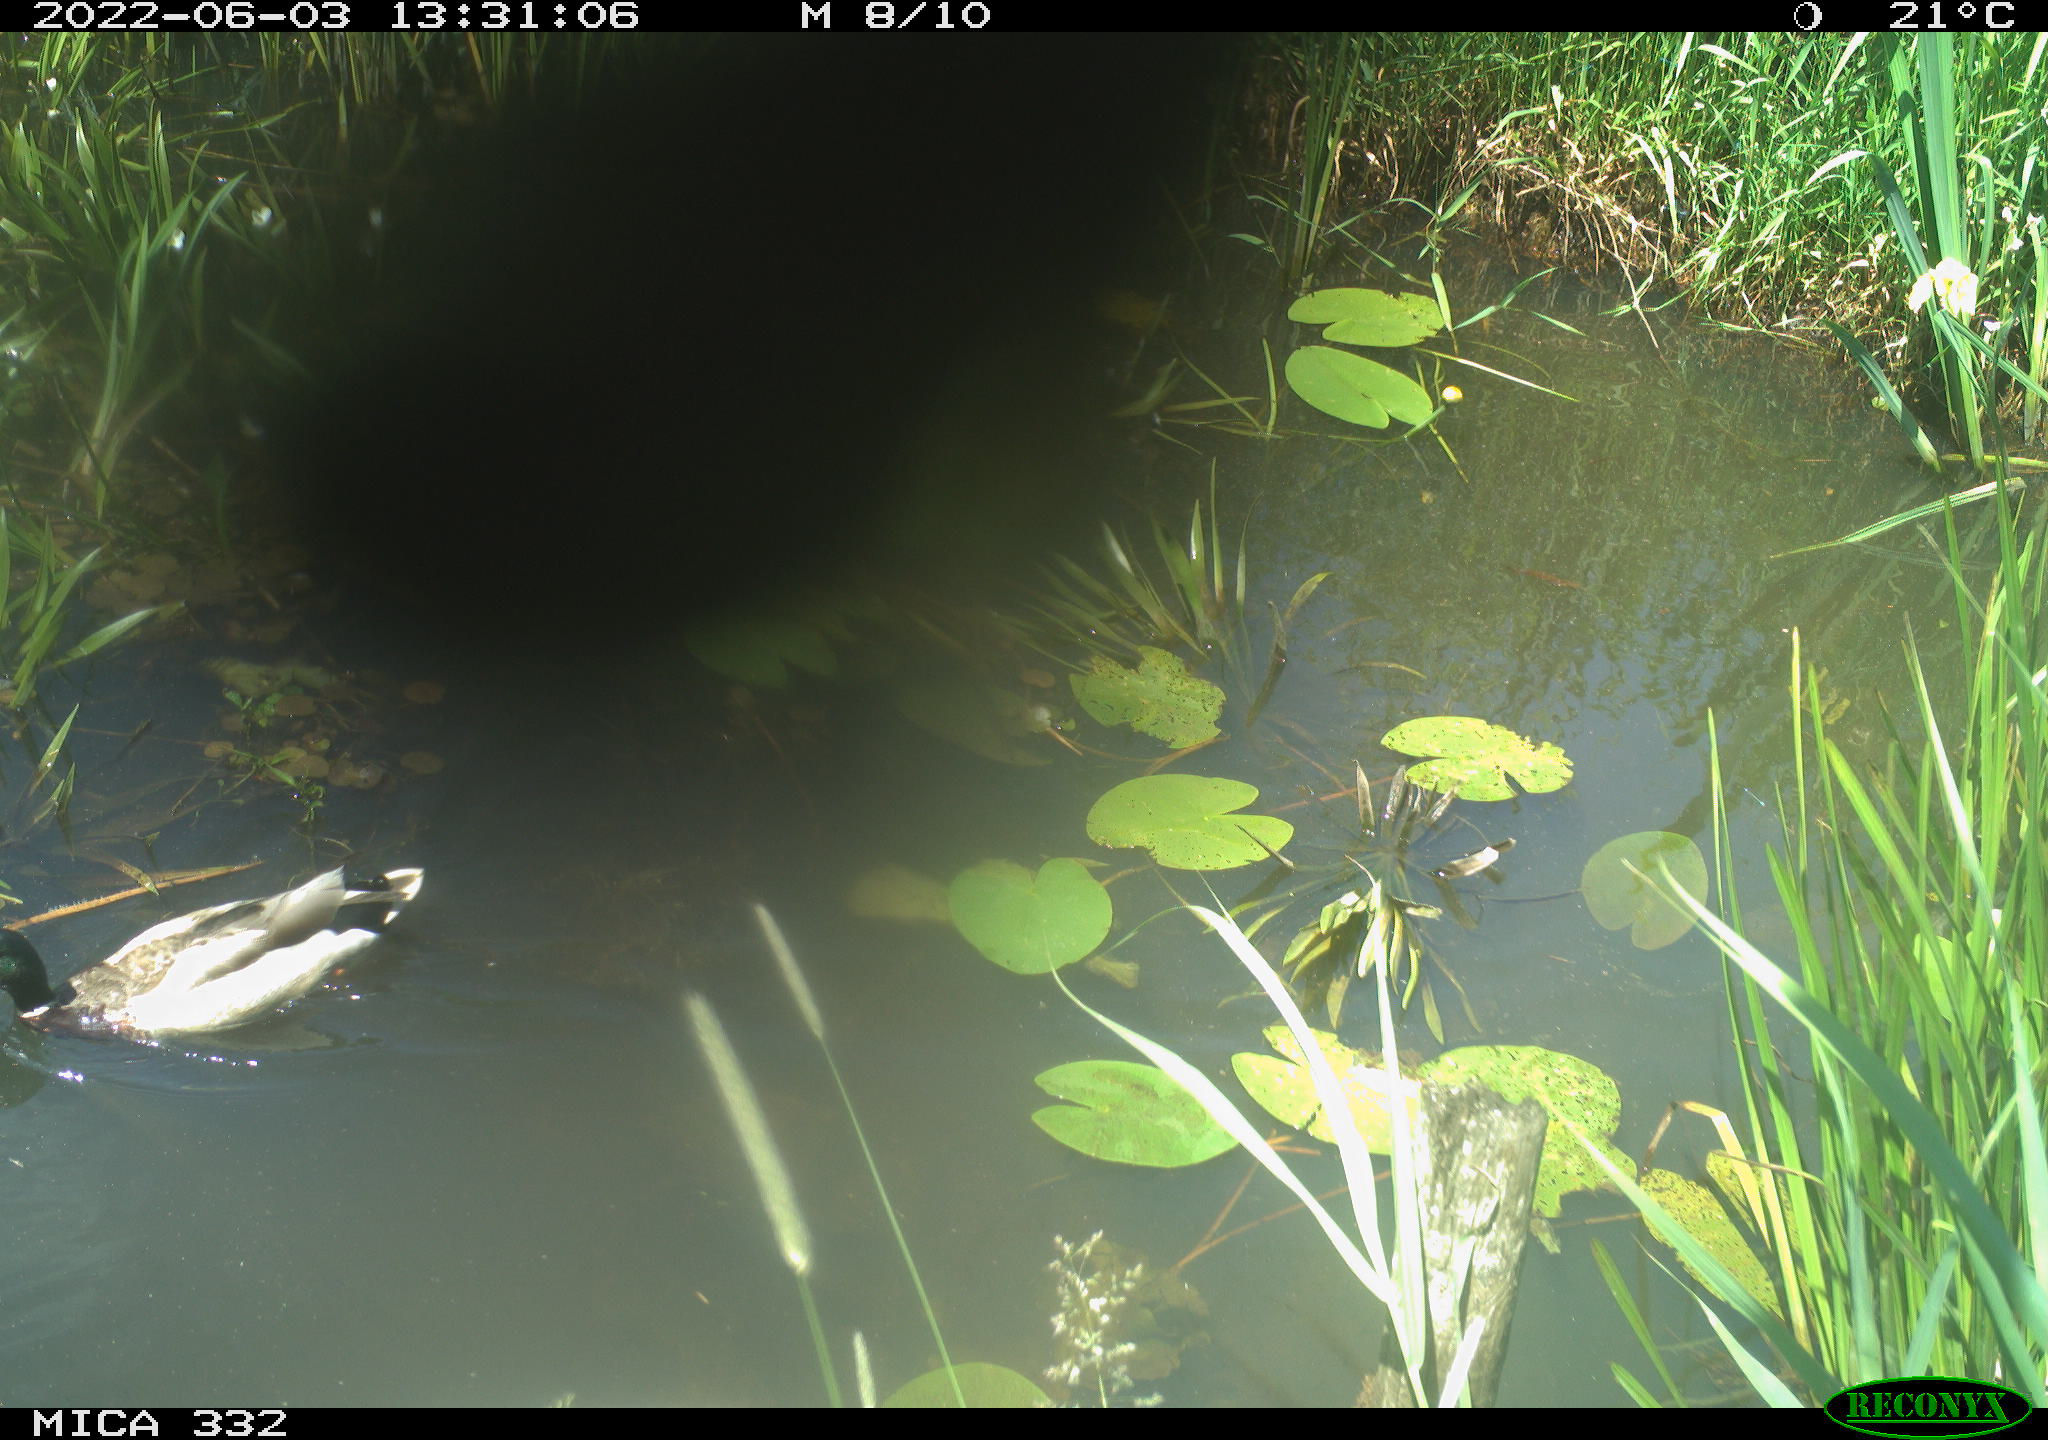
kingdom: Animalia
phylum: Chordata
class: Aves
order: Anseriformes
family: Anatidae
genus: Anas
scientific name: Anas platyrhynchos
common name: Mallard
